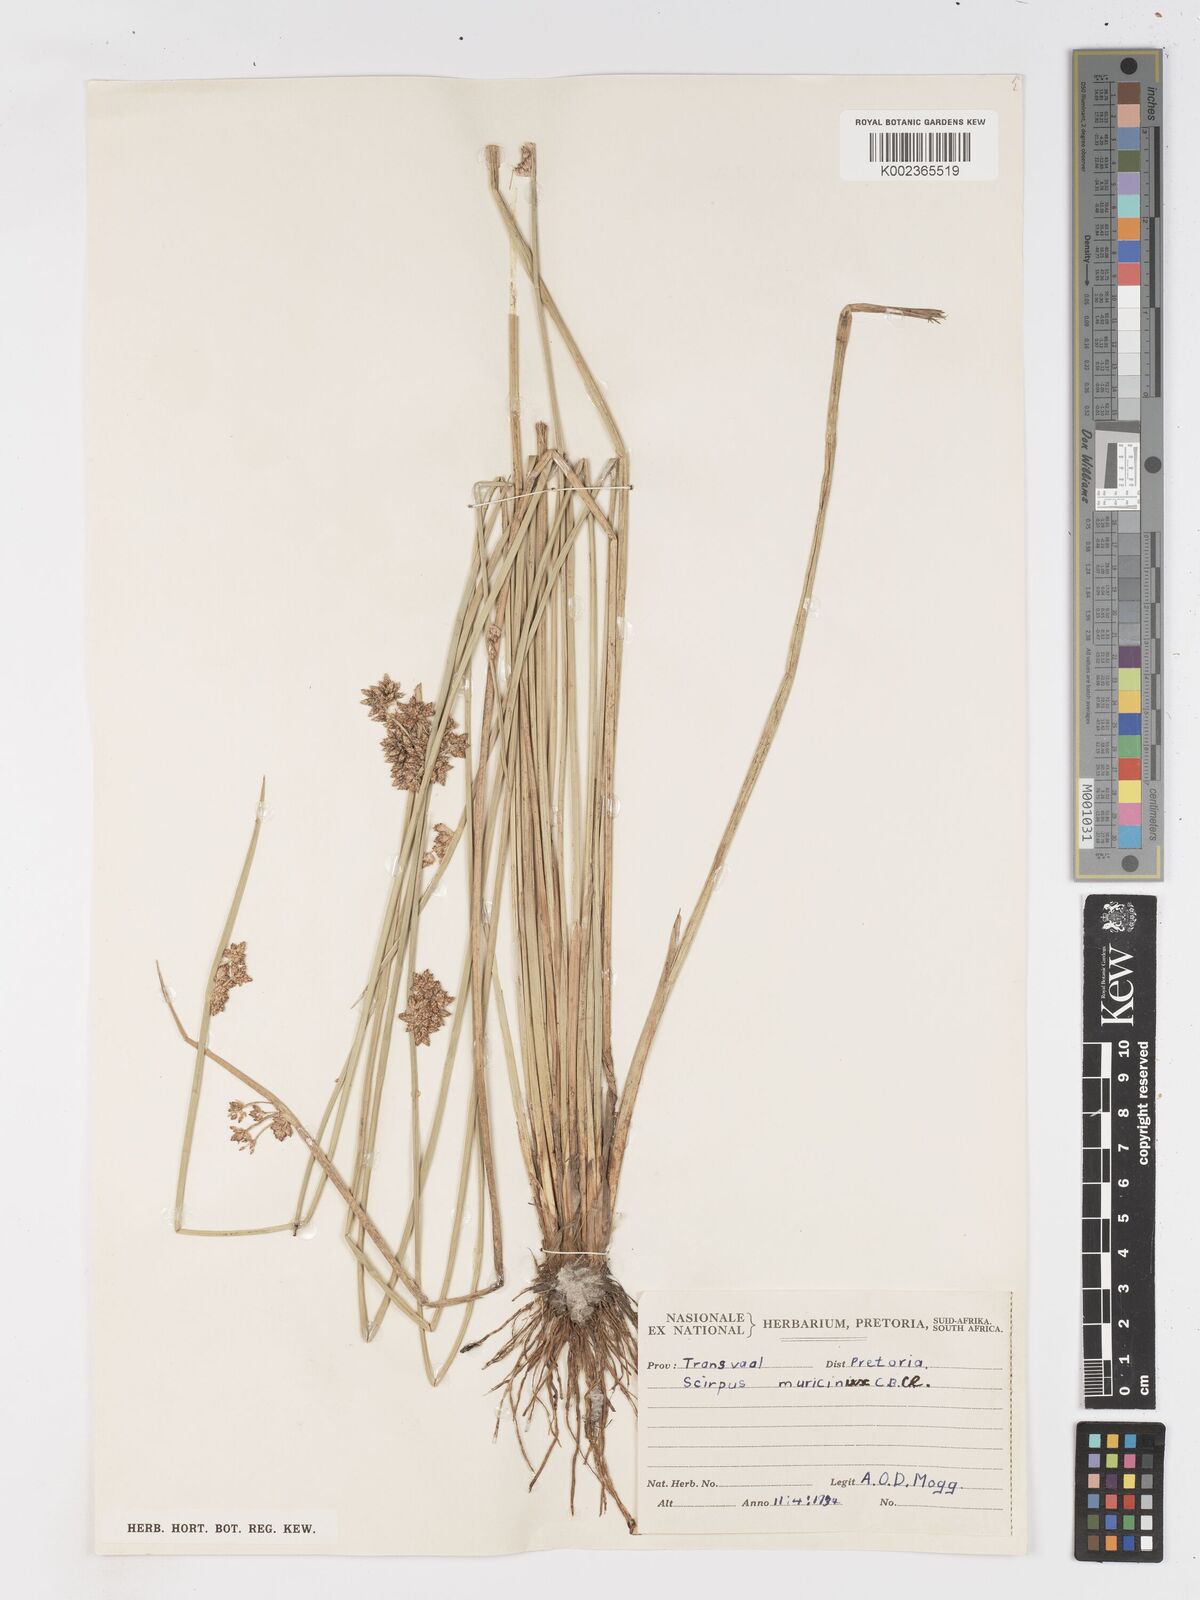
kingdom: Plantae
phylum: Tracheophyta
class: Liliopsida
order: Poales
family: Cyperaceae
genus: Schoenoplectiella
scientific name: Schoenoplectiella muricinux
